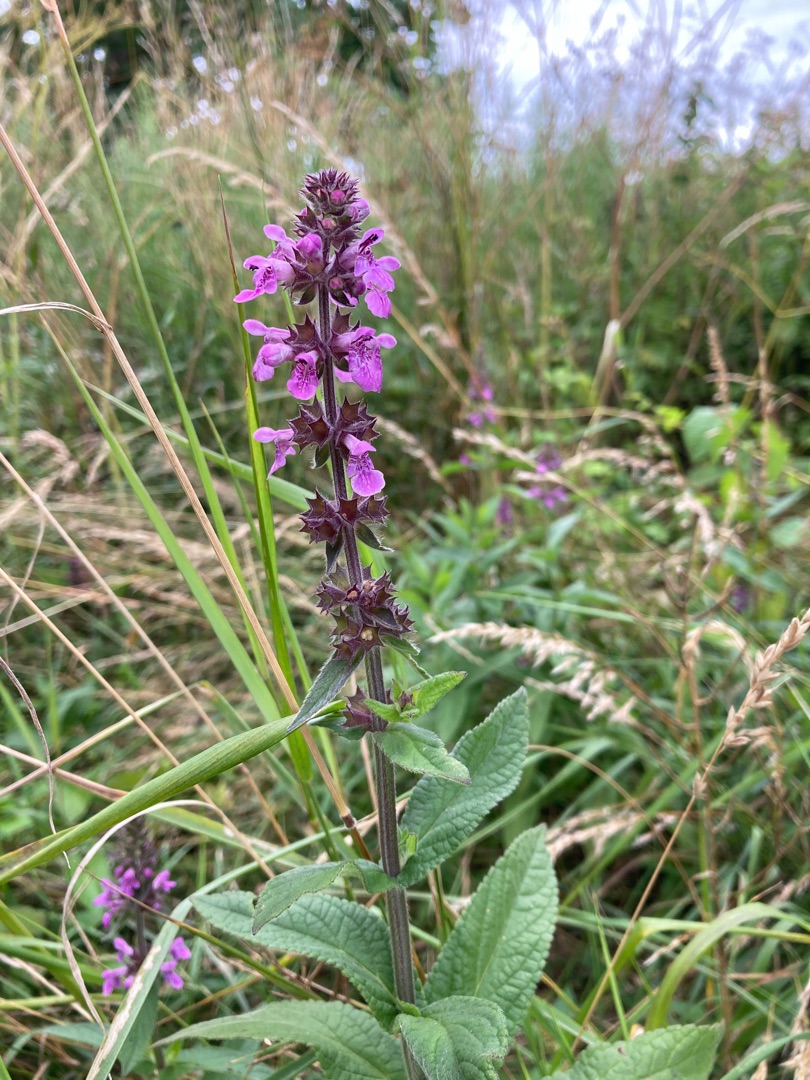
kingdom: Plantae
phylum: Tracheophyta
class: Magnoliopsida
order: Lamiales
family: Lamiaceae
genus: Stachys
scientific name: Stachys palustris
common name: Kær-galtetand
